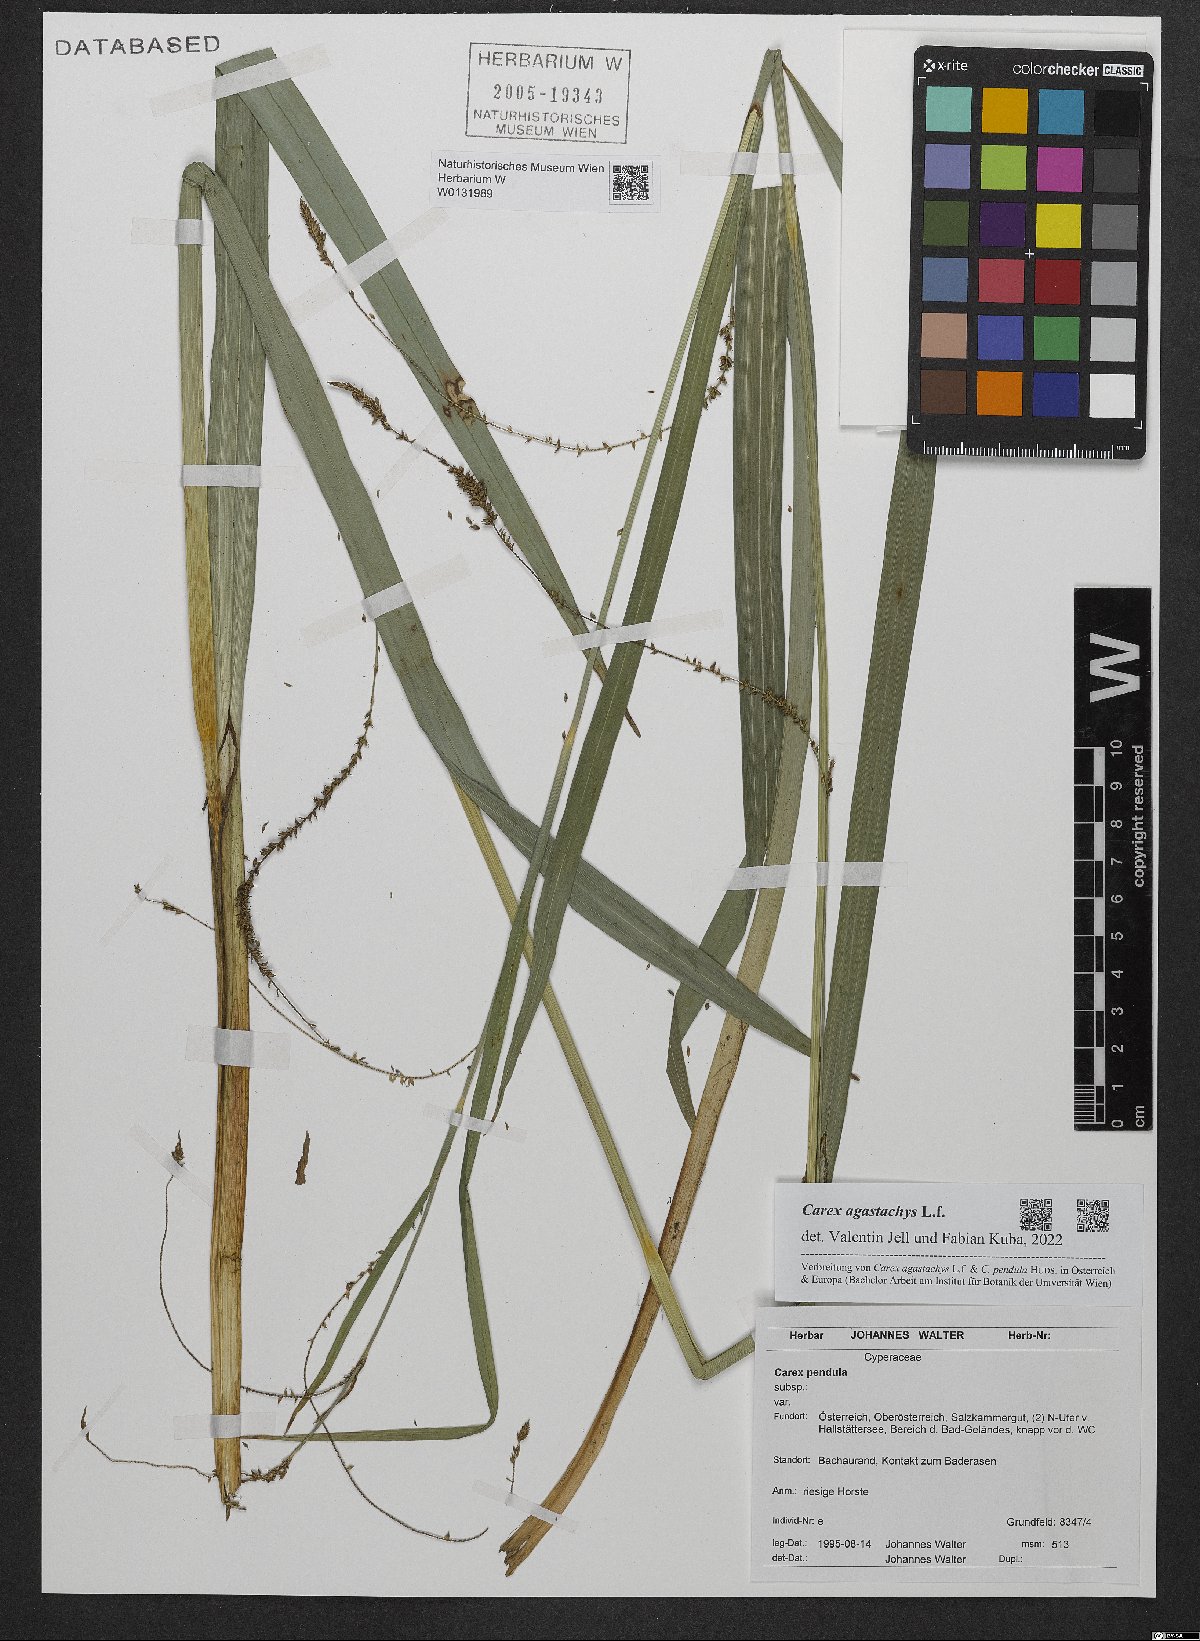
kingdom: Plantae
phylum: Tracheophyta
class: Liliopsida
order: Poales
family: Cyperaceae
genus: Carex
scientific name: Carex agastachys
